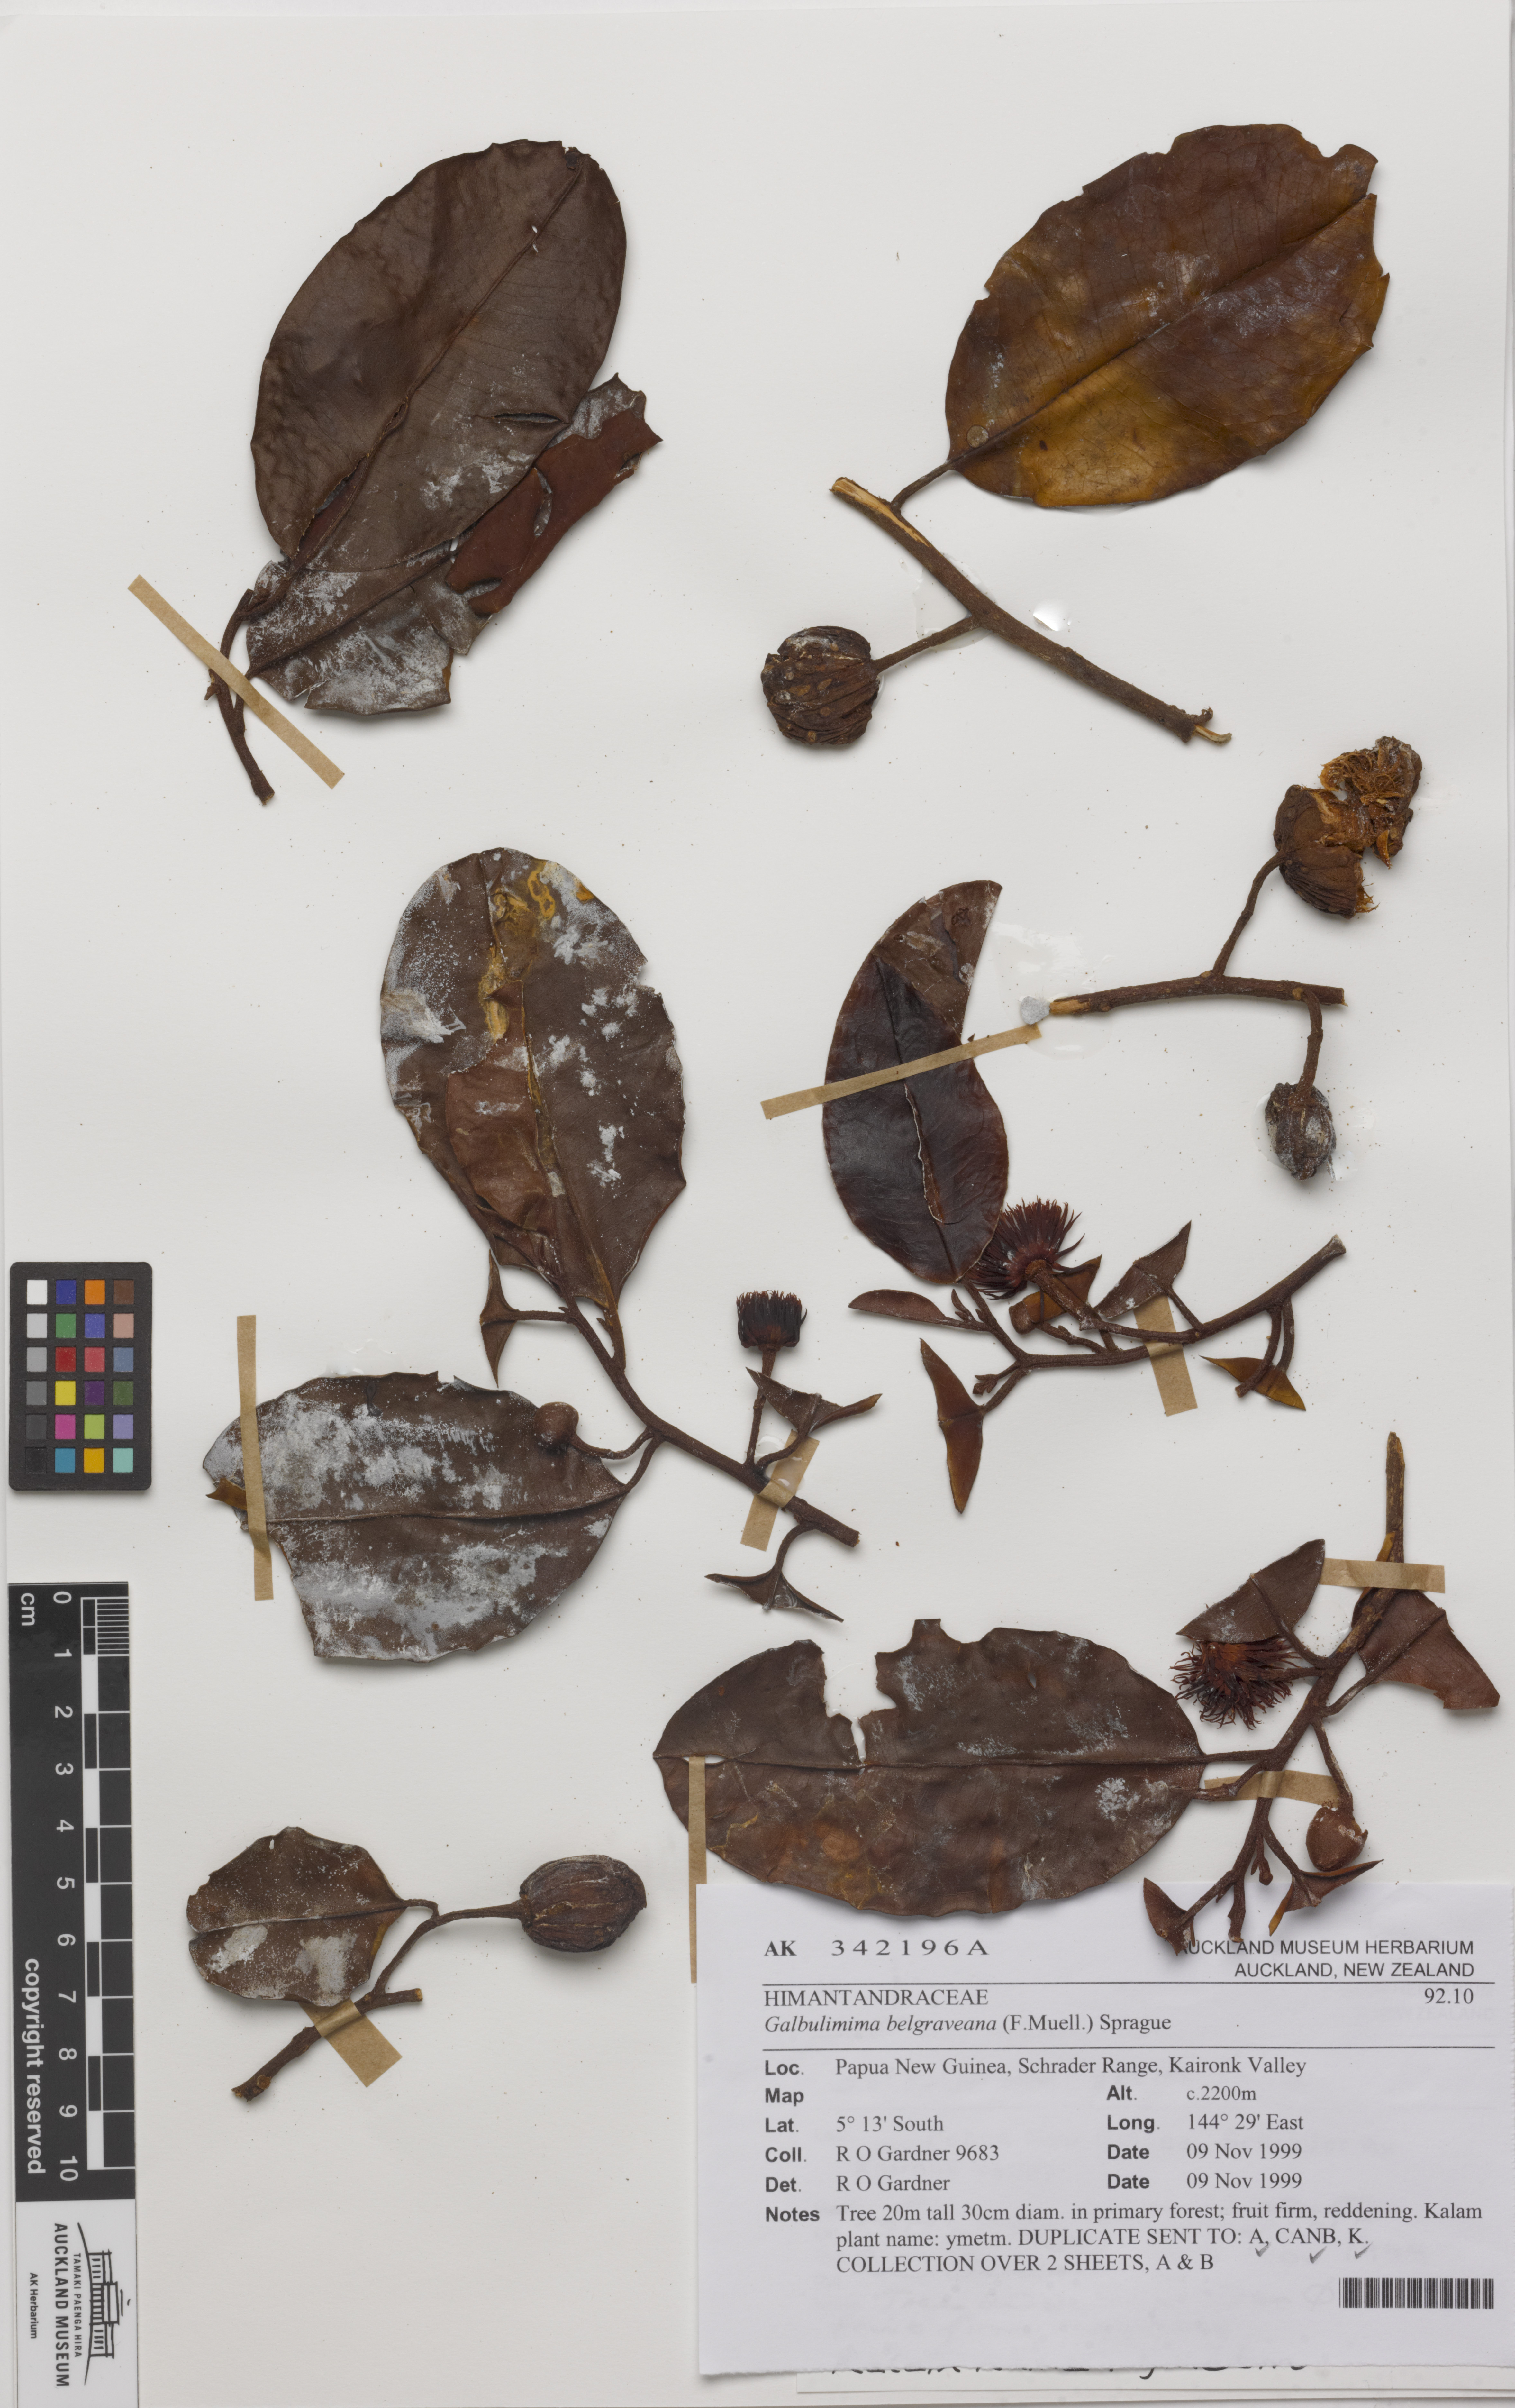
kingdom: Plantae
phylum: Tracheophyta
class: Magnoliopsida
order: Magnoliales
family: Himantandraceae
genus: Galbulimima
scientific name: Galbulimima belgraveana
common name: Northern pigeonberry-ash
